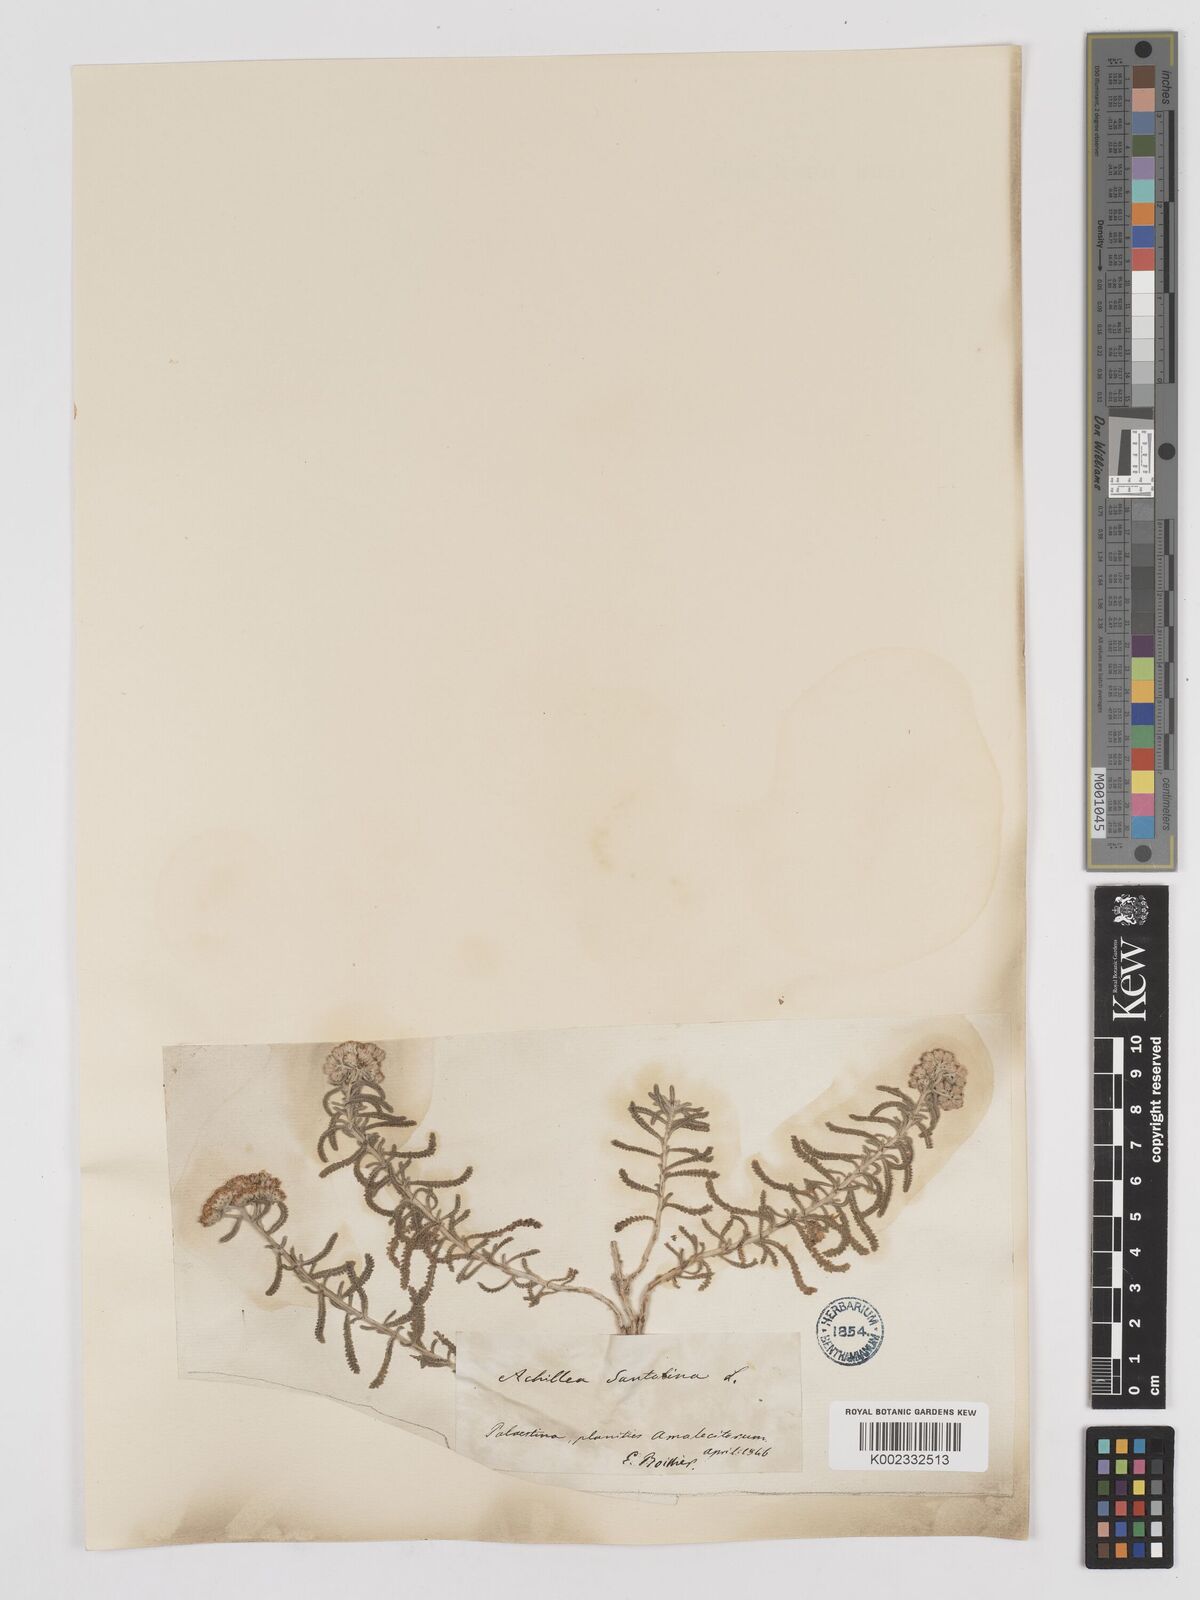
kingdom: Plantae
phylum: Tracheophyta
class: Magnoliopsida
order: Asterales
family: Asteraceae
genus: Achillea
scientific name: Achillea tenuifolia
